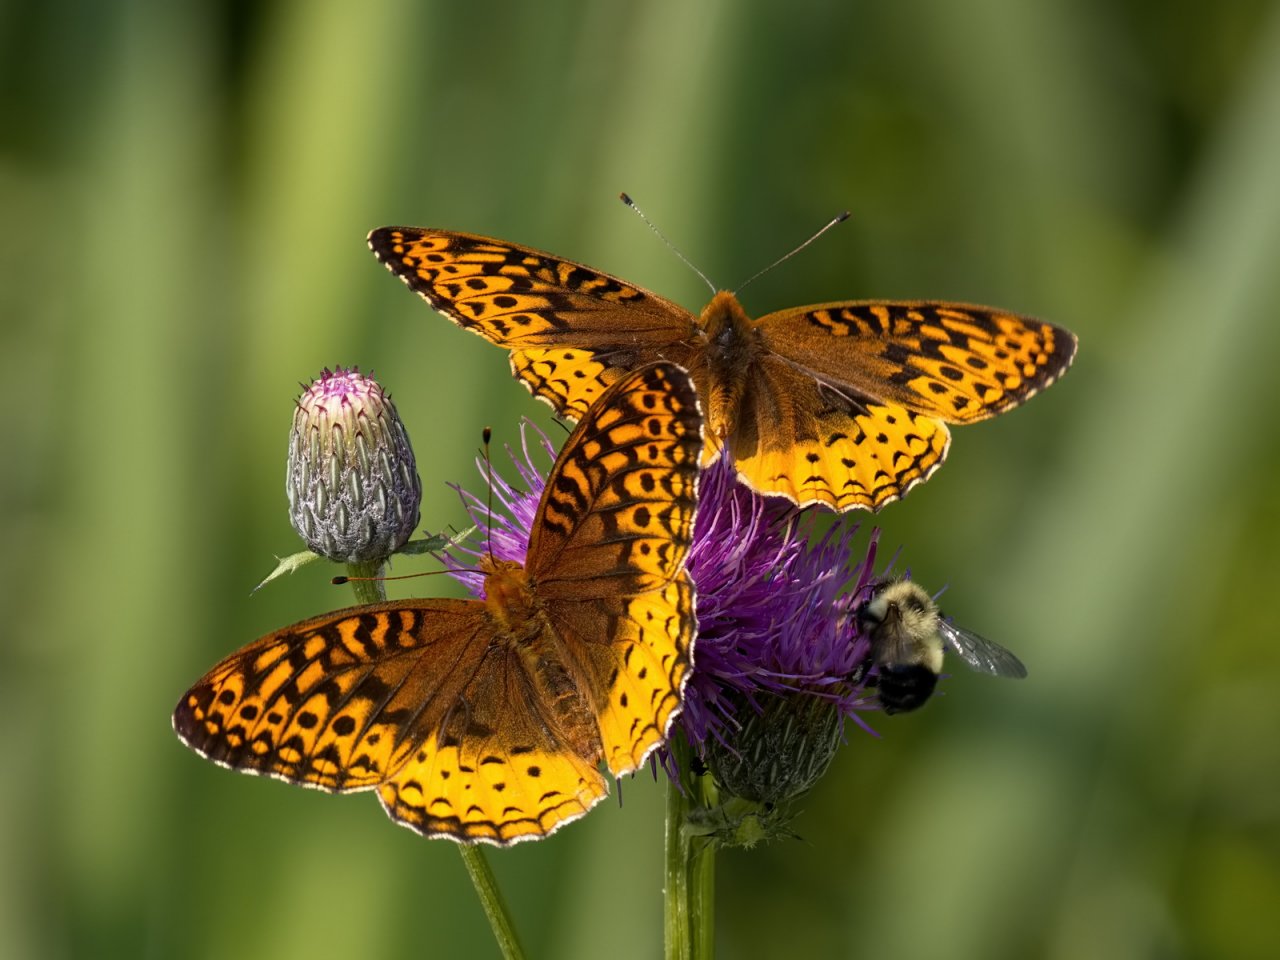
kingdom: Animalia
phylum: Arthropoda
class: Insecta
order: Lepidoptera
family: Nymphalidae
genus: Speyeria
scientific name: Speyeria cybele
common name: Great Spangled Fritillary
